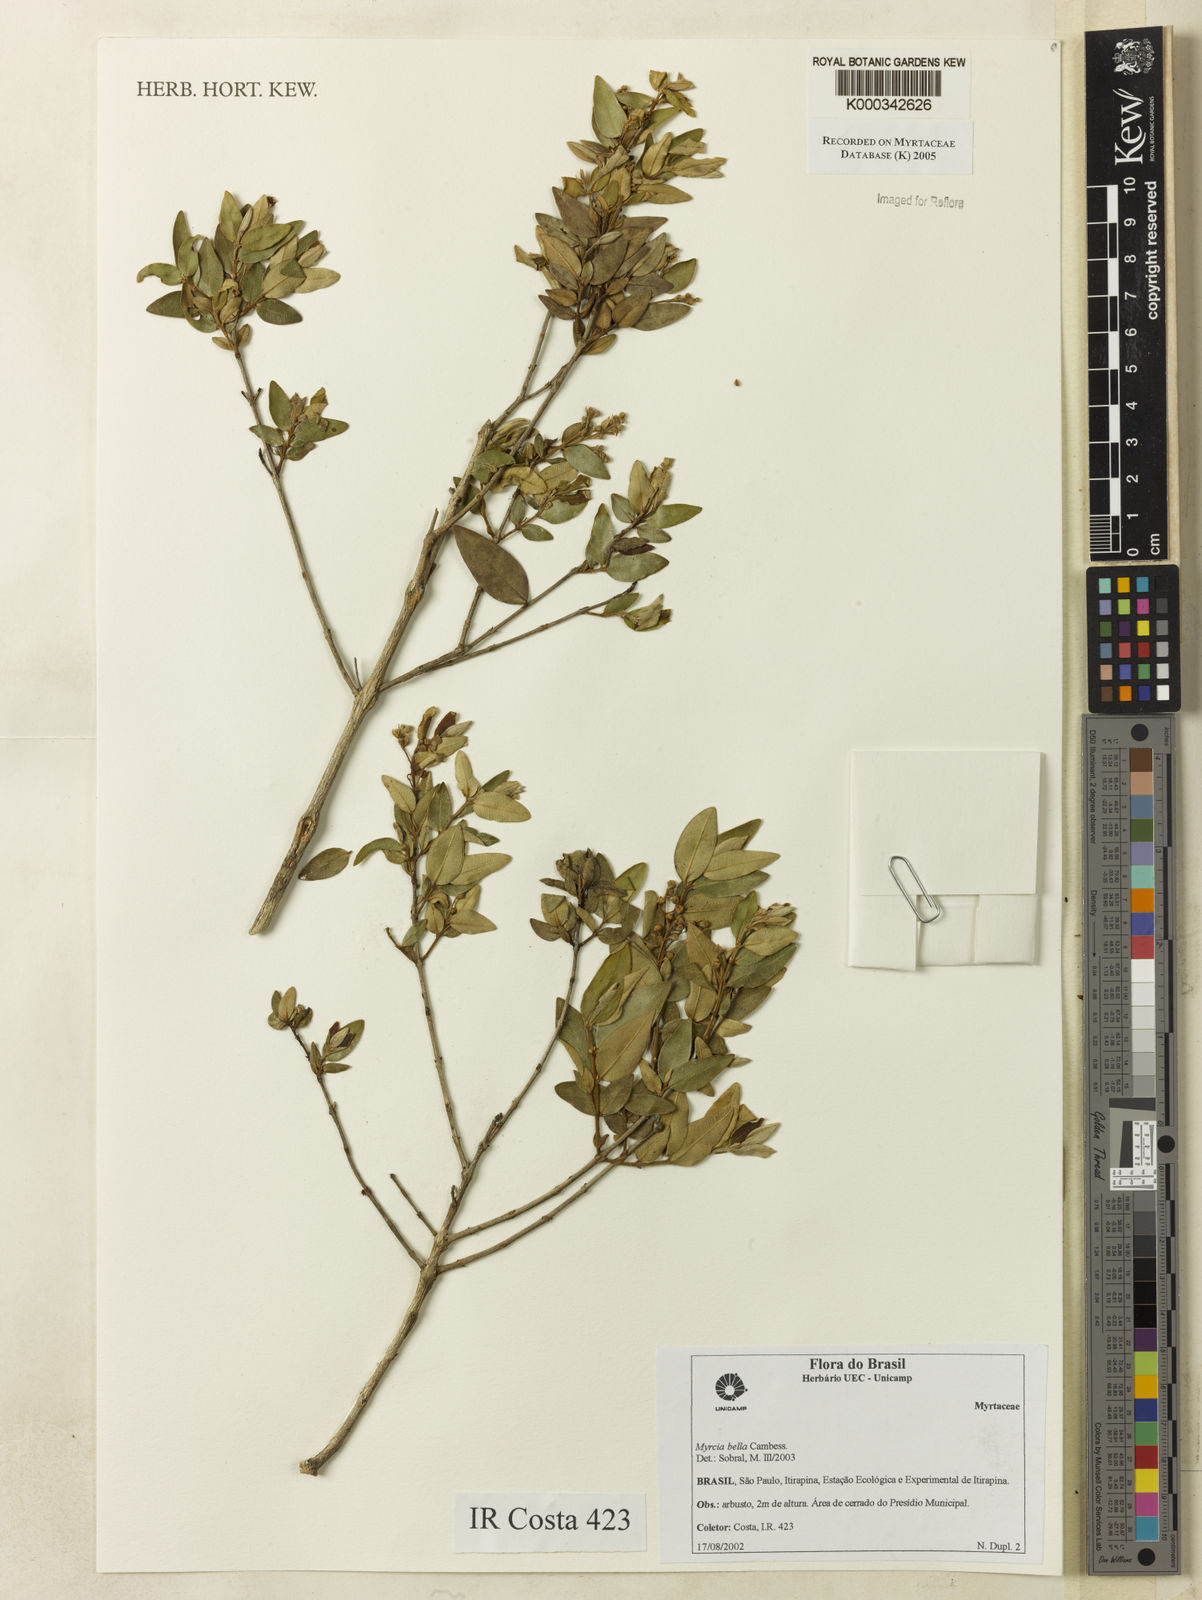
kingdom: Plantae
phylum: Tracheophyta
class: Magnoliopsida
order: Myrtales
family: Myrtaceae
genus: Myrcia
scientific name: Myrcia bella
